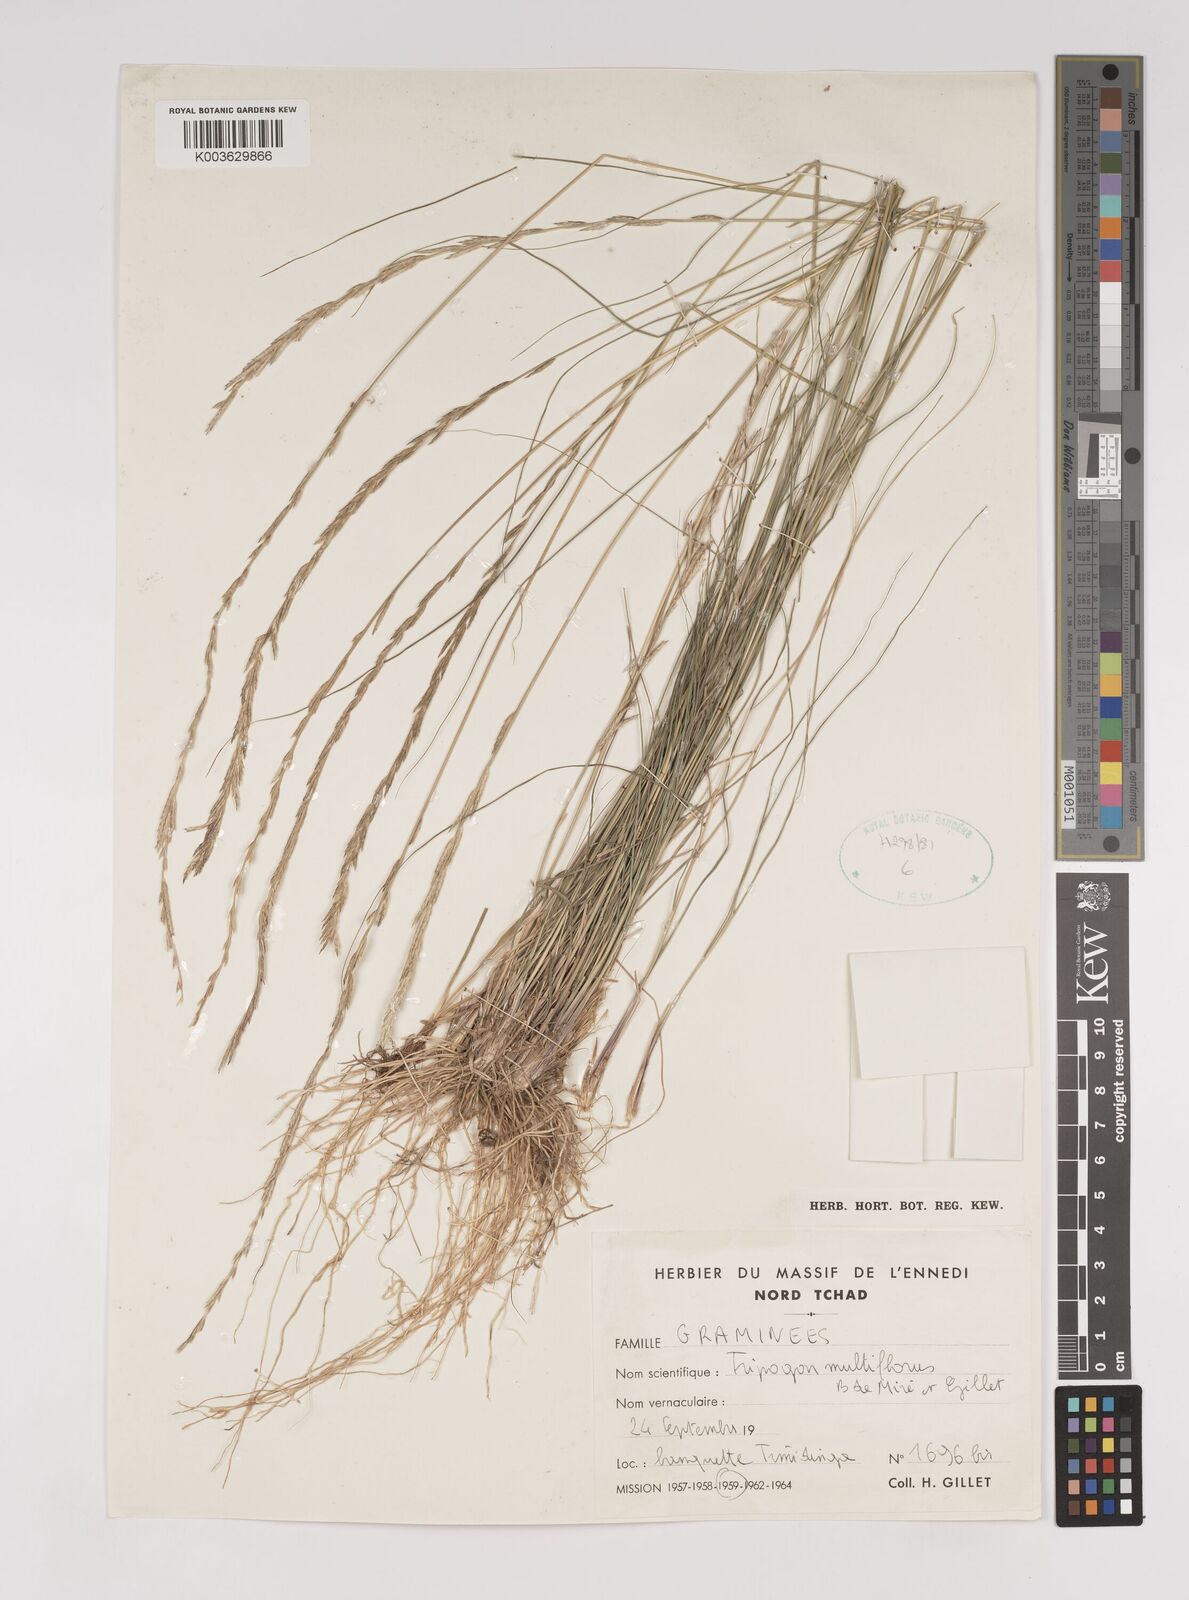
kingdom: Plantae
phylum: Tracheophyta
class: Liliopsida
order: Poales
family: Poaceae
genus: Tripogon
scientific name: Tripogon multiflorus
